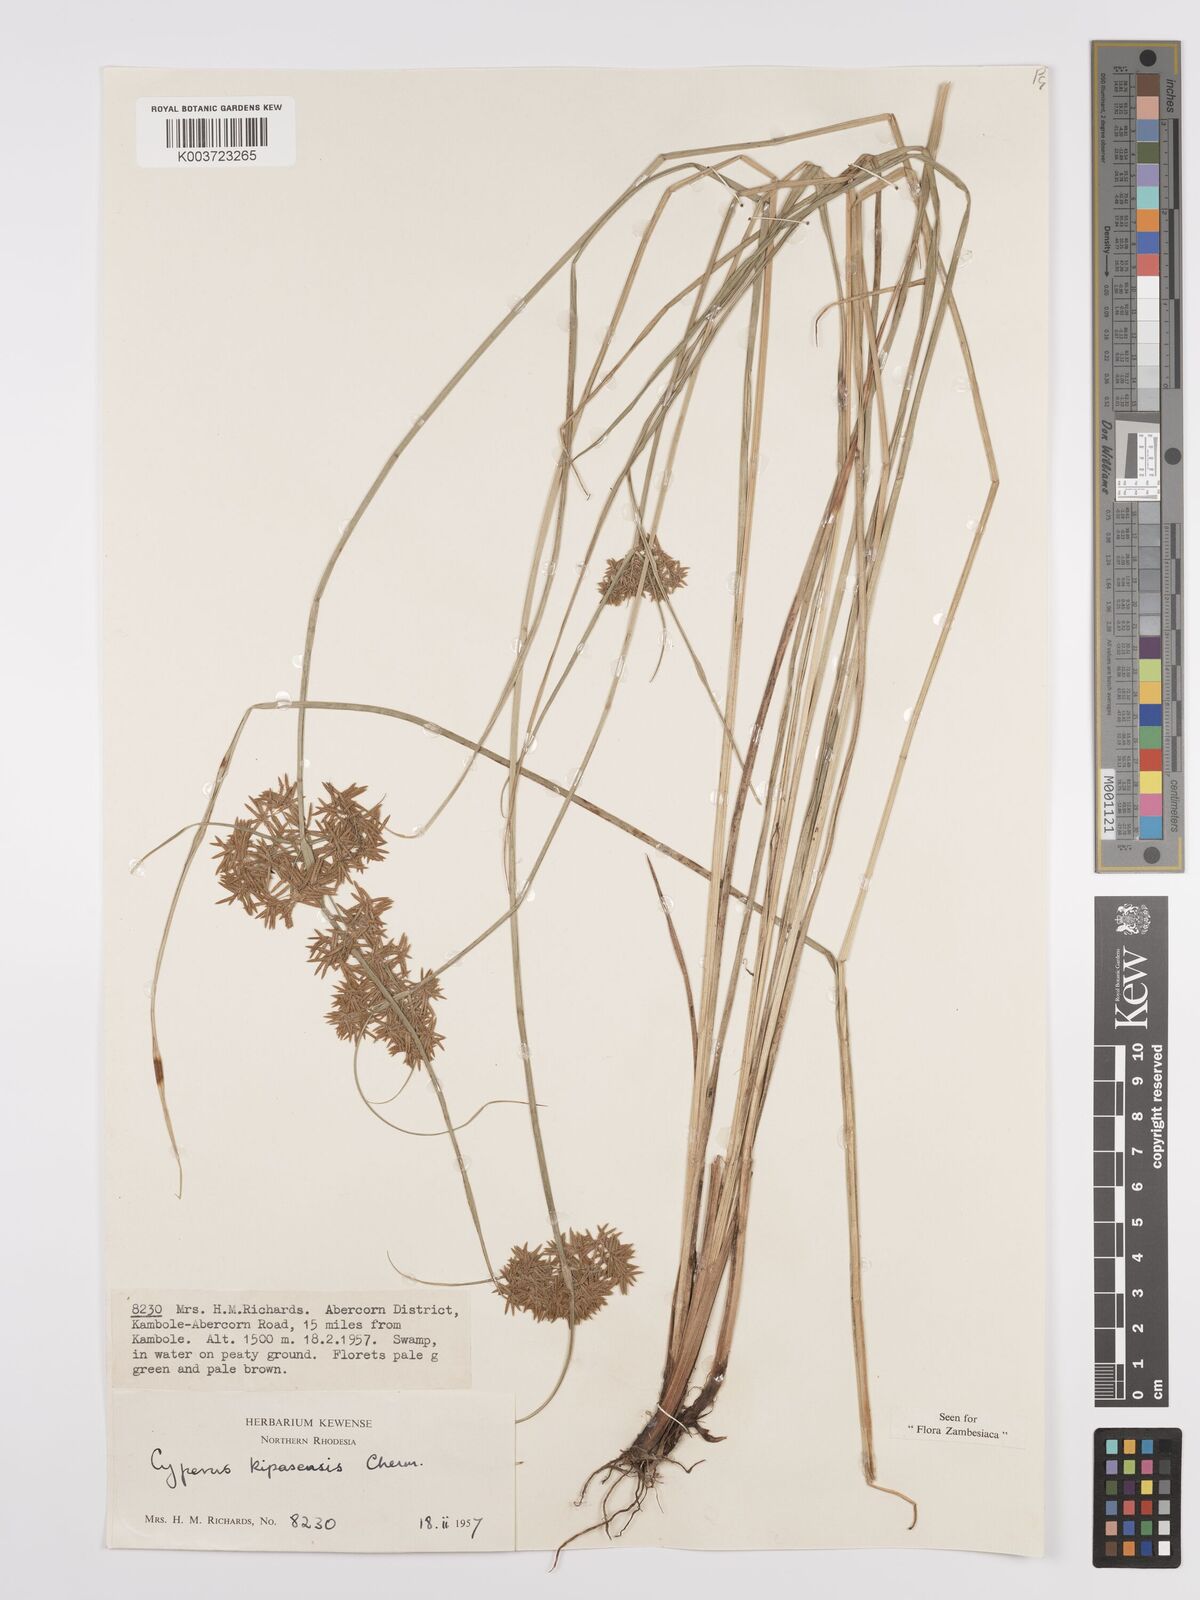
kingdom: Plantae
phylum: Tracheophyta
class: Liliopsida
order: Poales
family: Cyperaceae
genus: Cyperus
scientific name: Cyperus kipasensis
